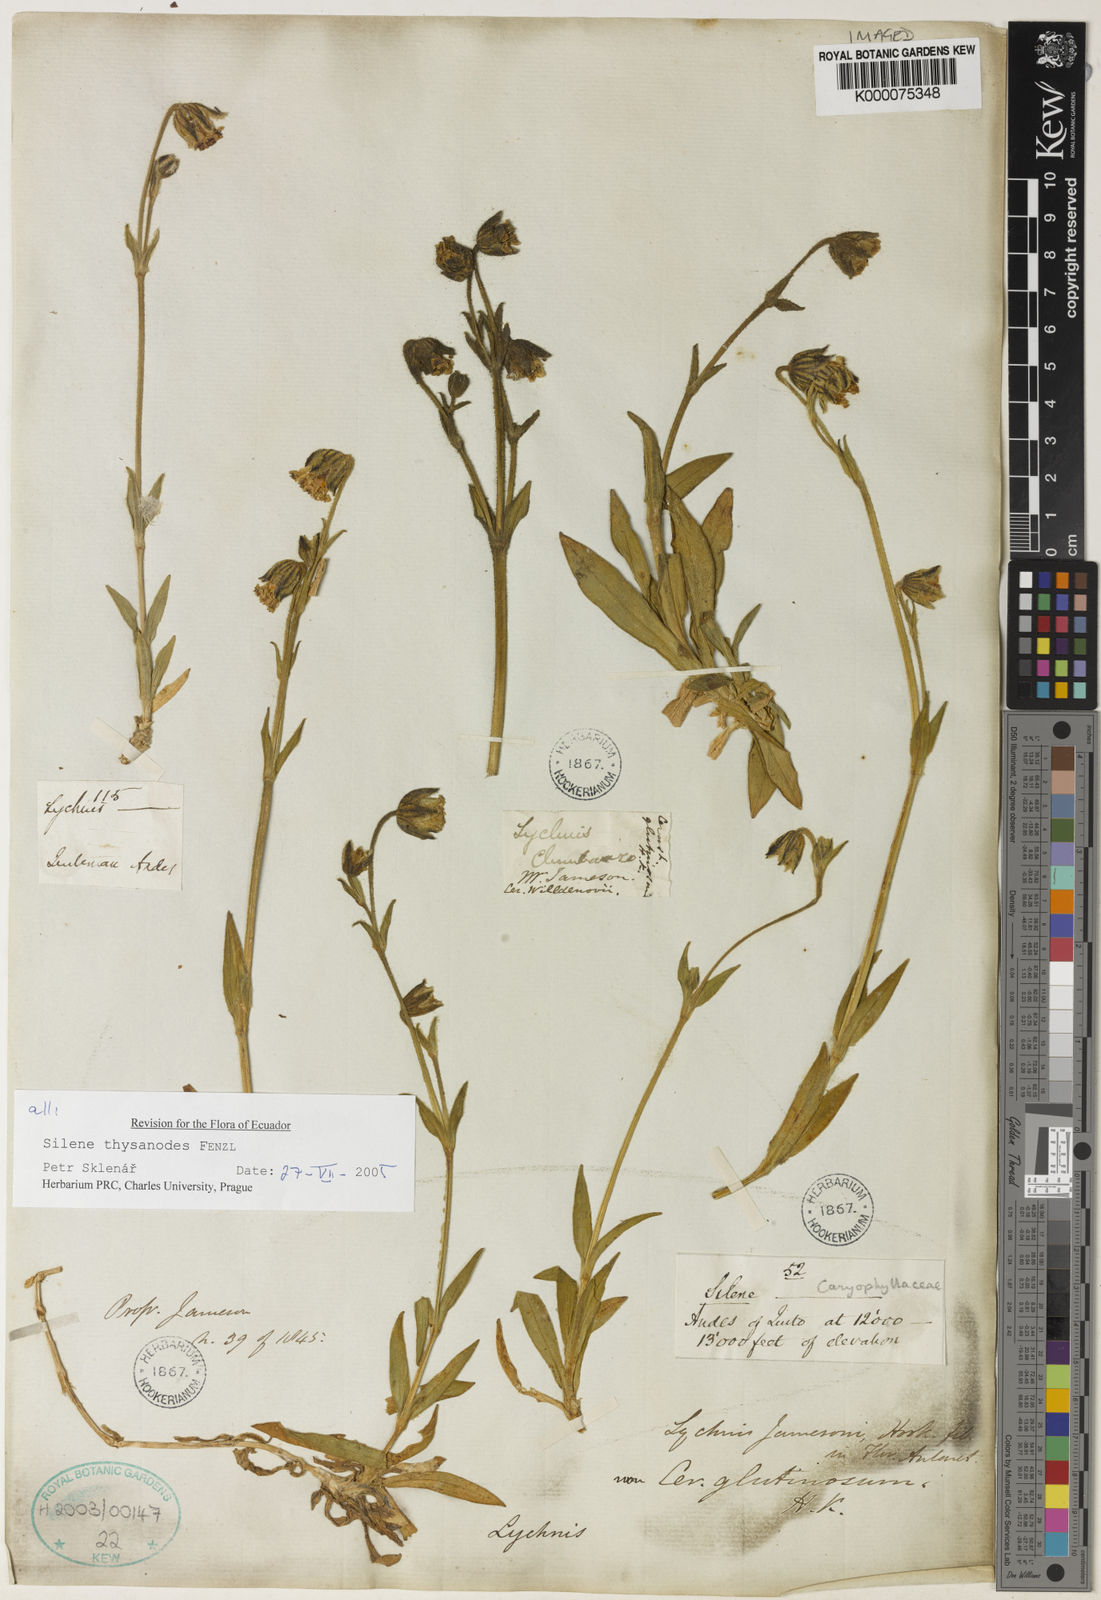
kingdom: Plantae
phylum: Tracheophyta
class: Magnoliopsida
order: Caryophyllales
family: Caryophyllaceae
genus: Silene
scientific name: Silene thysanodes
